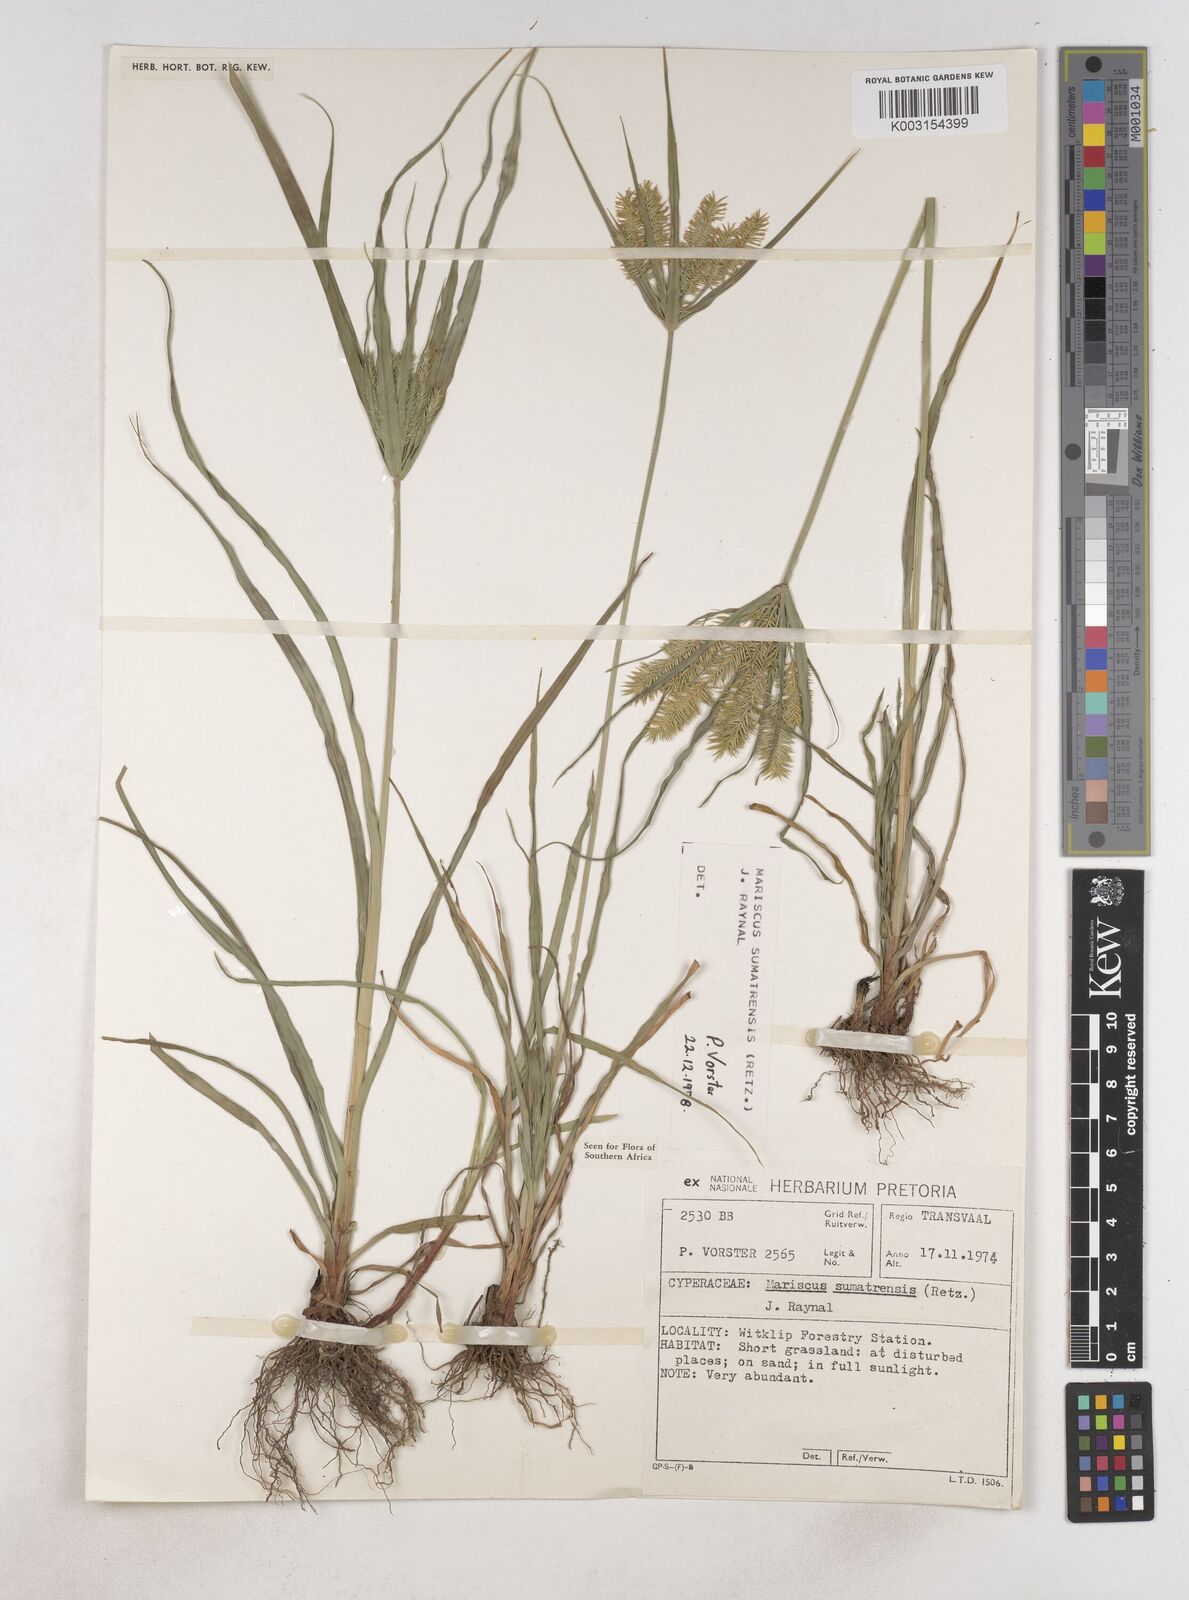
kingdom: Plantae
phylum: Tracheophyta
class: Liliopsida
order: Poales
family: Cyperaceae
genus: Cyperus
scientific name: Cyperus cyperoides
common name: Pacific island flat sedge
